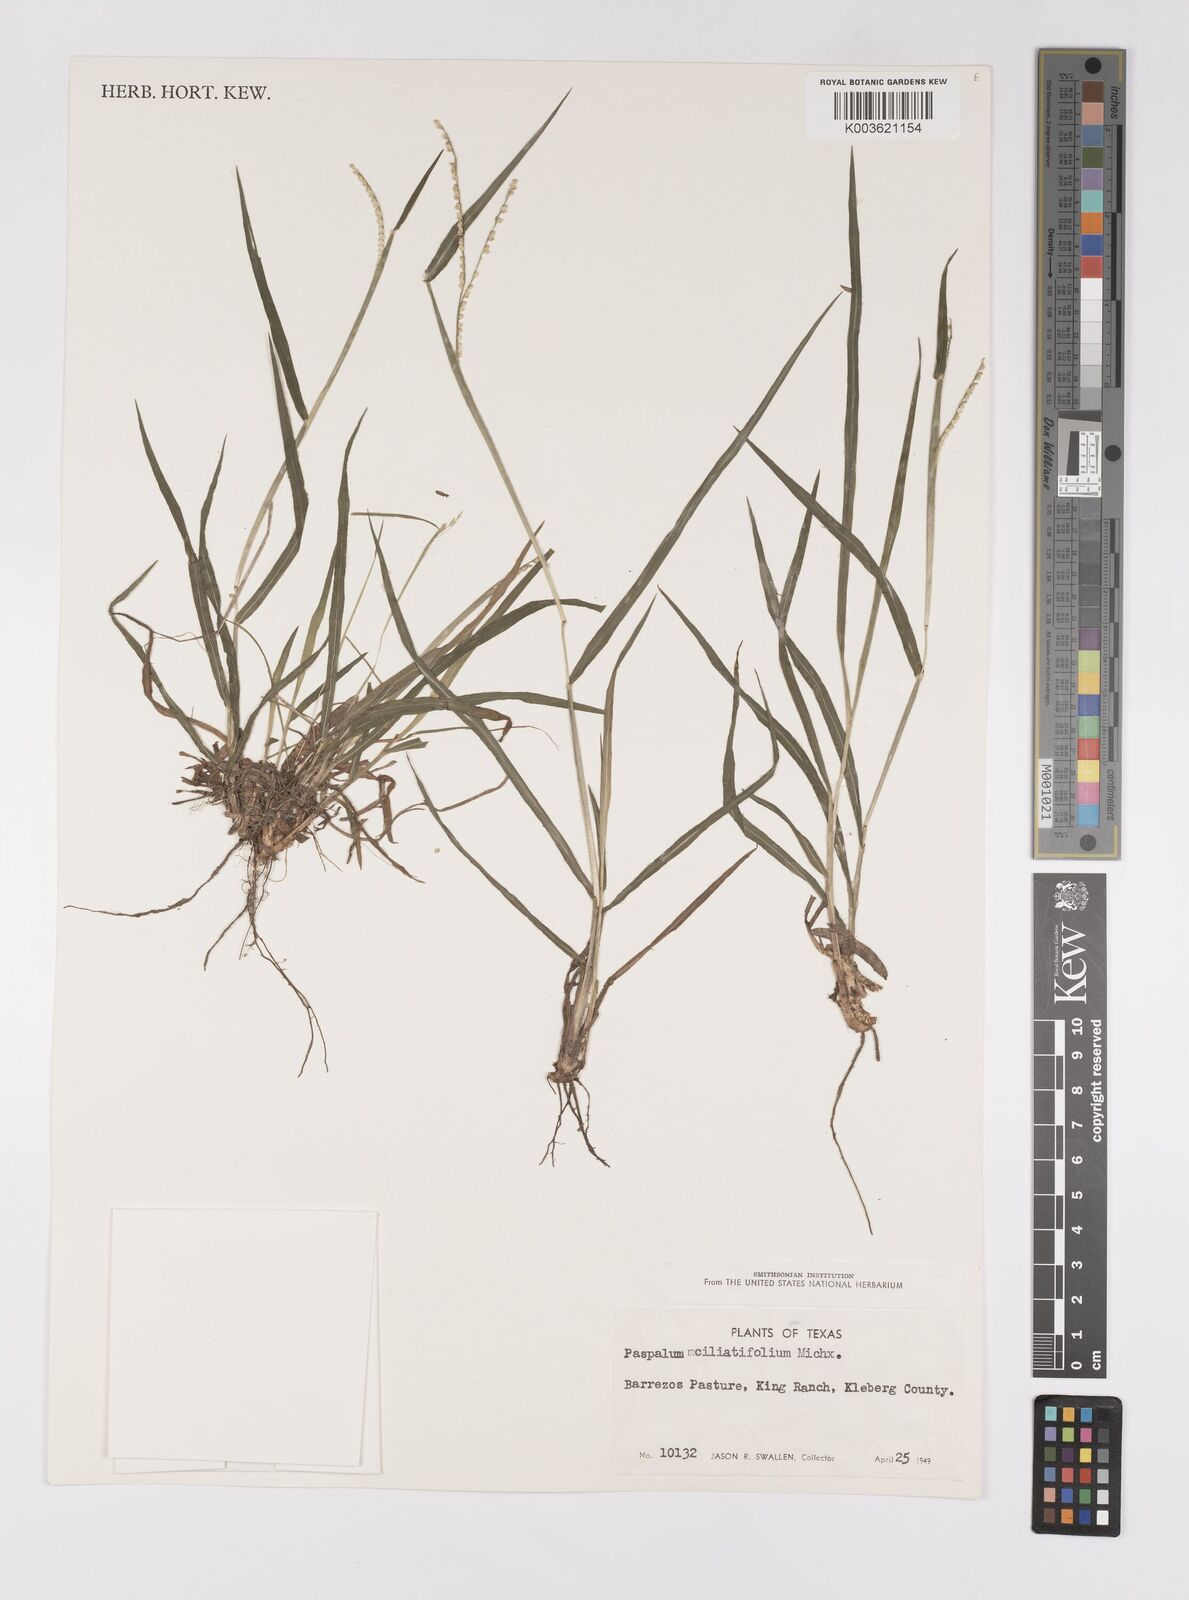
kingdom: Plantae
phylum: Tracheophyta
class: Liliopsida
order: Poales
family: Poaceae
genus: Paspalum
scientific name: Paspalum setaceum
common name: Slender paspalum
